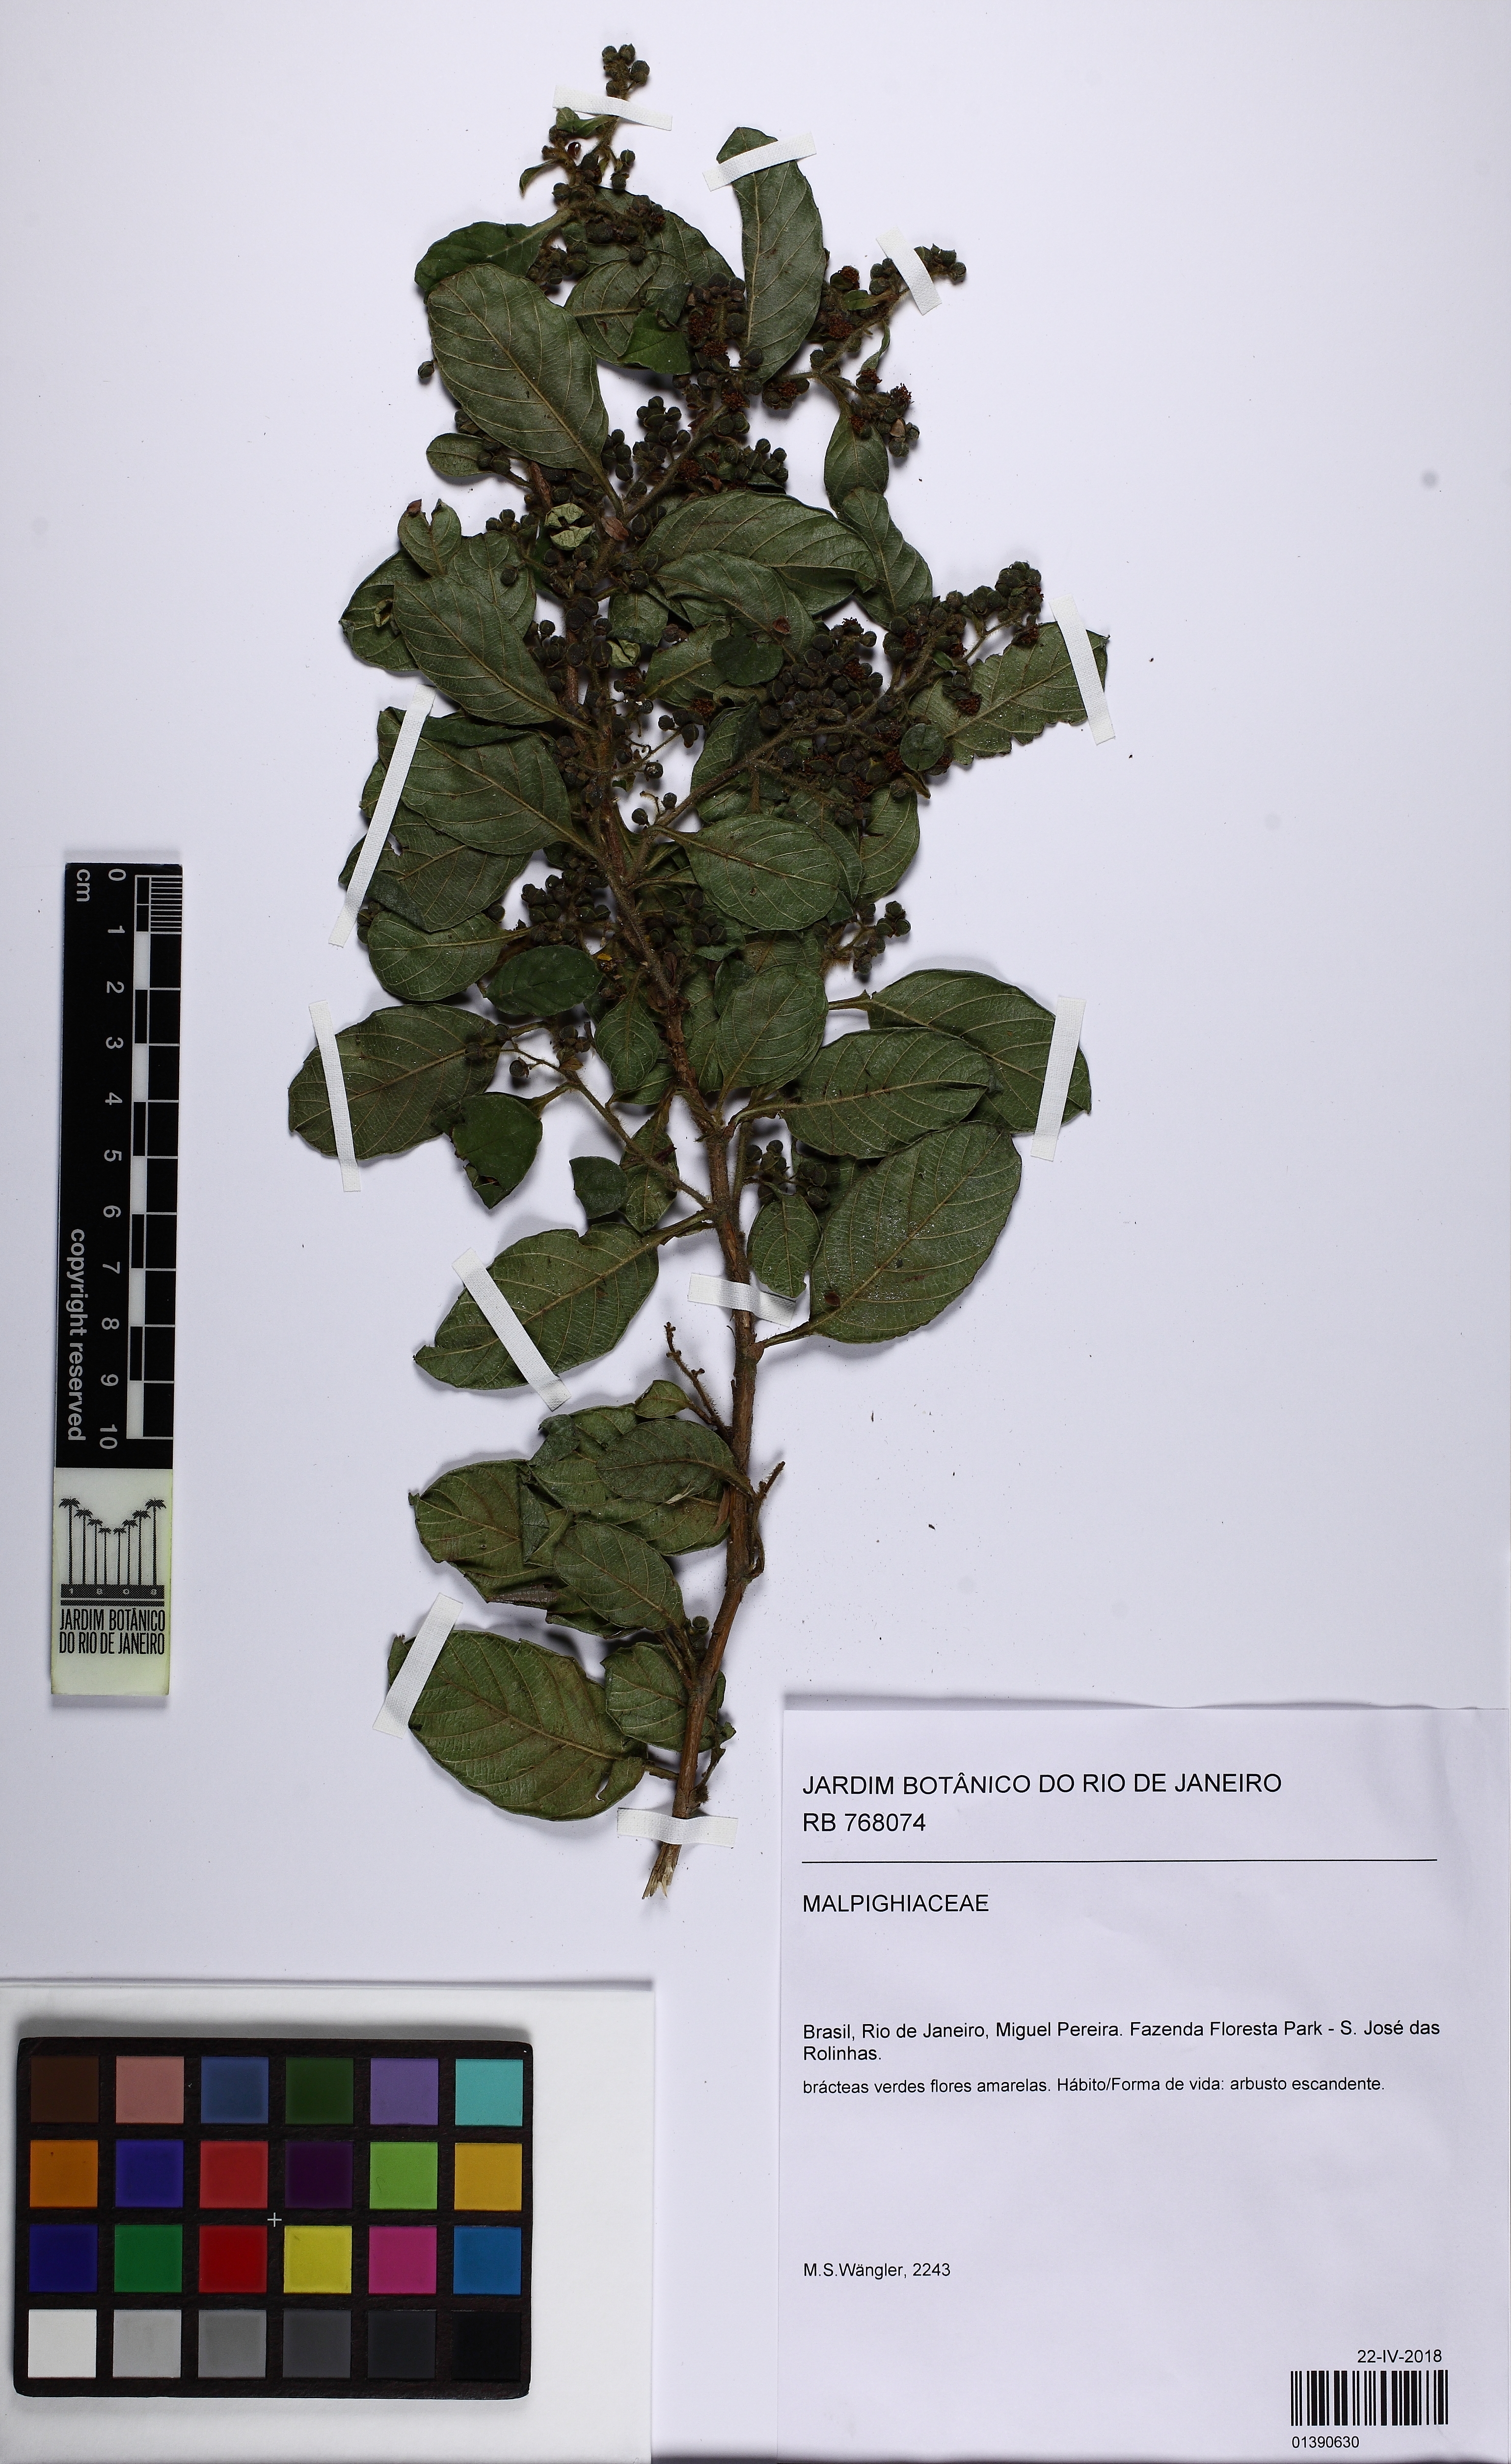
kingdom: Plantae
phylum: Tracheophyta
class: Magnoliopsida
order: Dilleniales
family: Dilleniaceae
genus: Davilla
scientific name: Davilla rugosa
